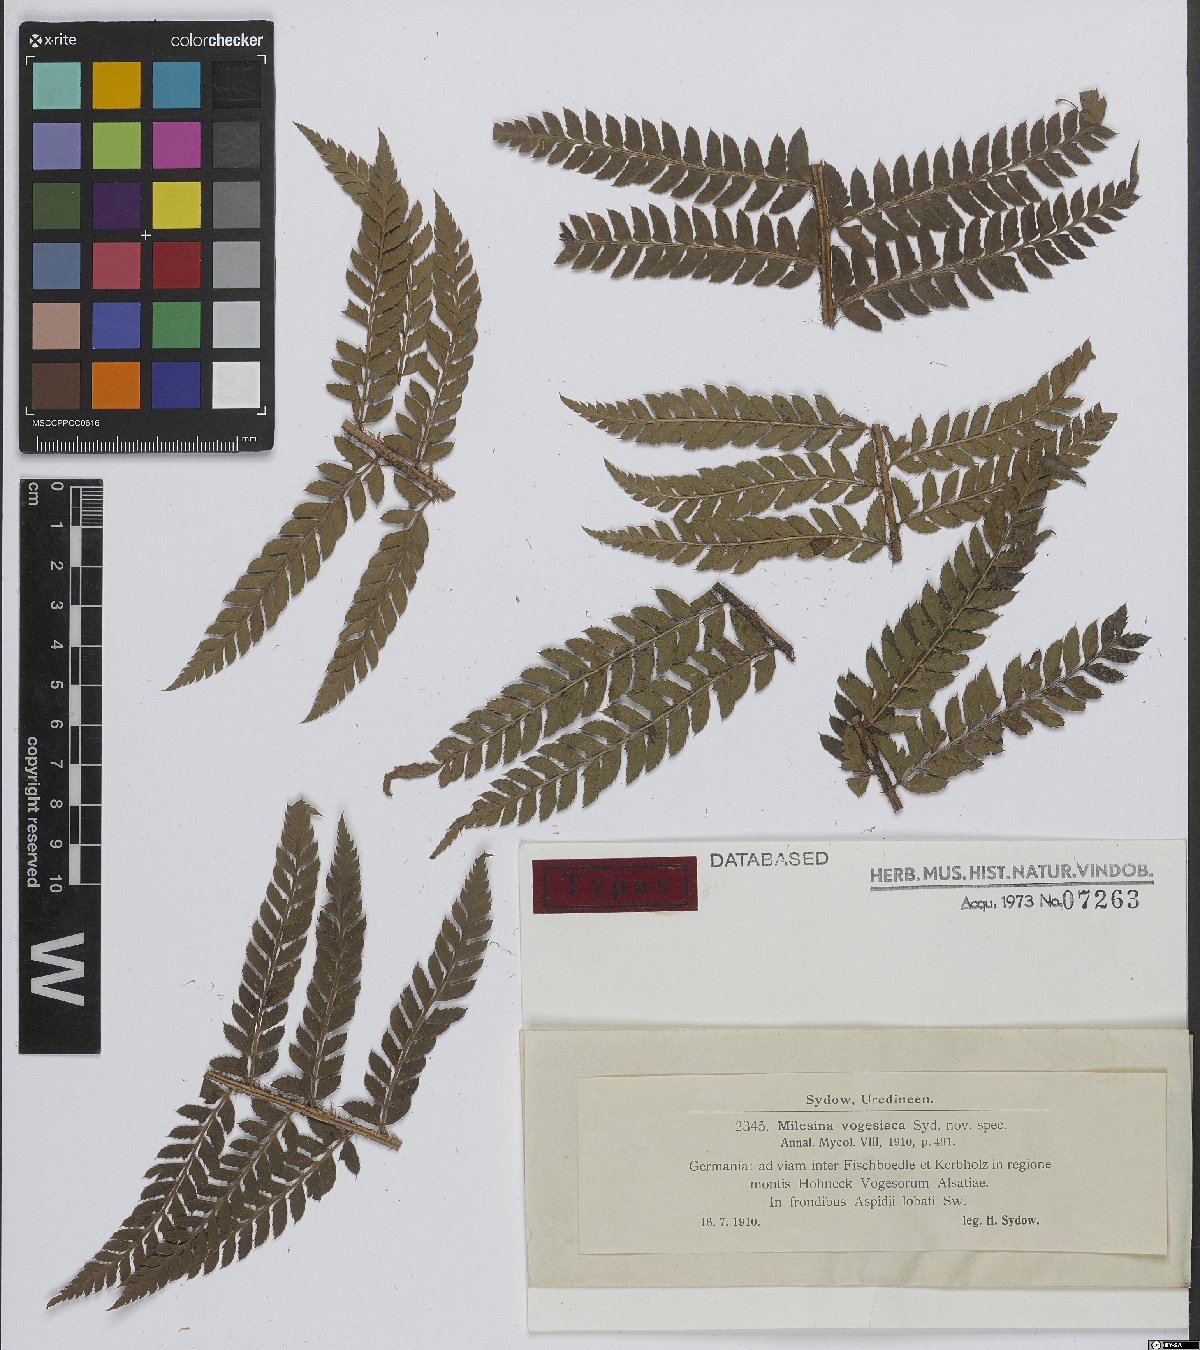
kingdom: Fungi
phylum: Basidiomycota
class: Pucciniomycetes
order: Pucciniales
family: Milesinaceae
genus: Milesina
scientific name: Milesina vogesiaca
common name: Smooth-spored fern rust
